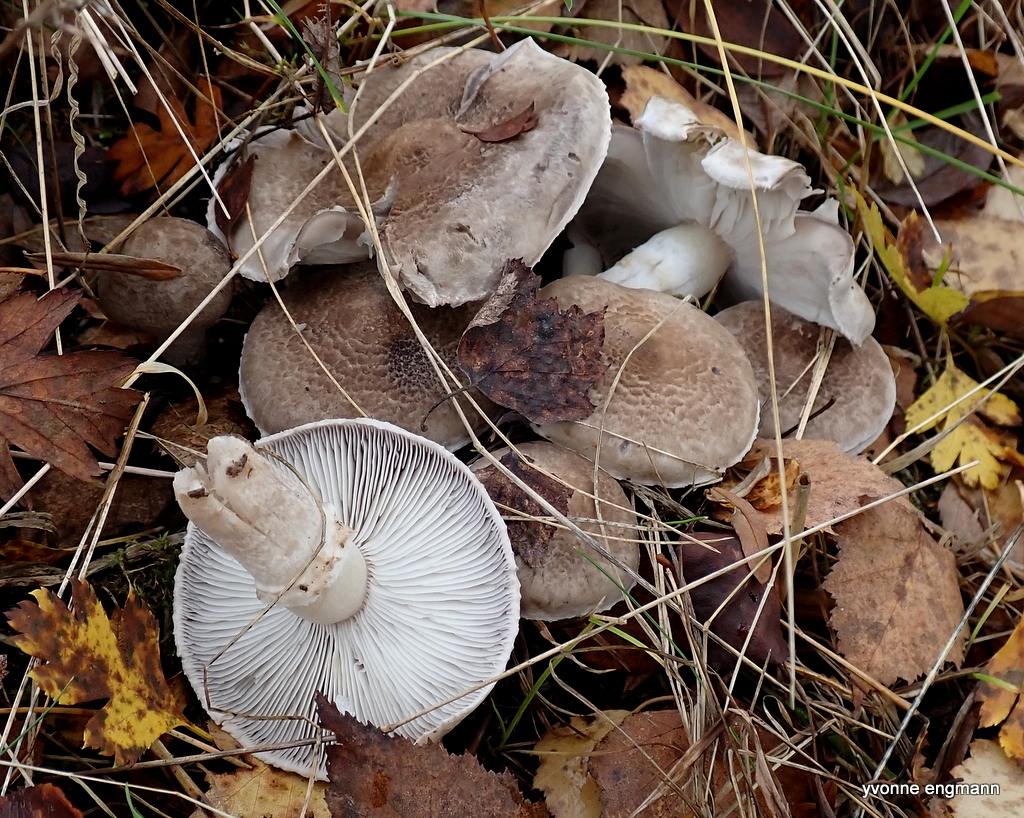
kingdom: Fungi
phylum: Basidiomycota
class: Agaricomycetes
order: Agaricales
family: Tricholomataceae
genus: Tricholoma
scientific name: Tricholoma cingulatum
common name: ring-ridderhat
